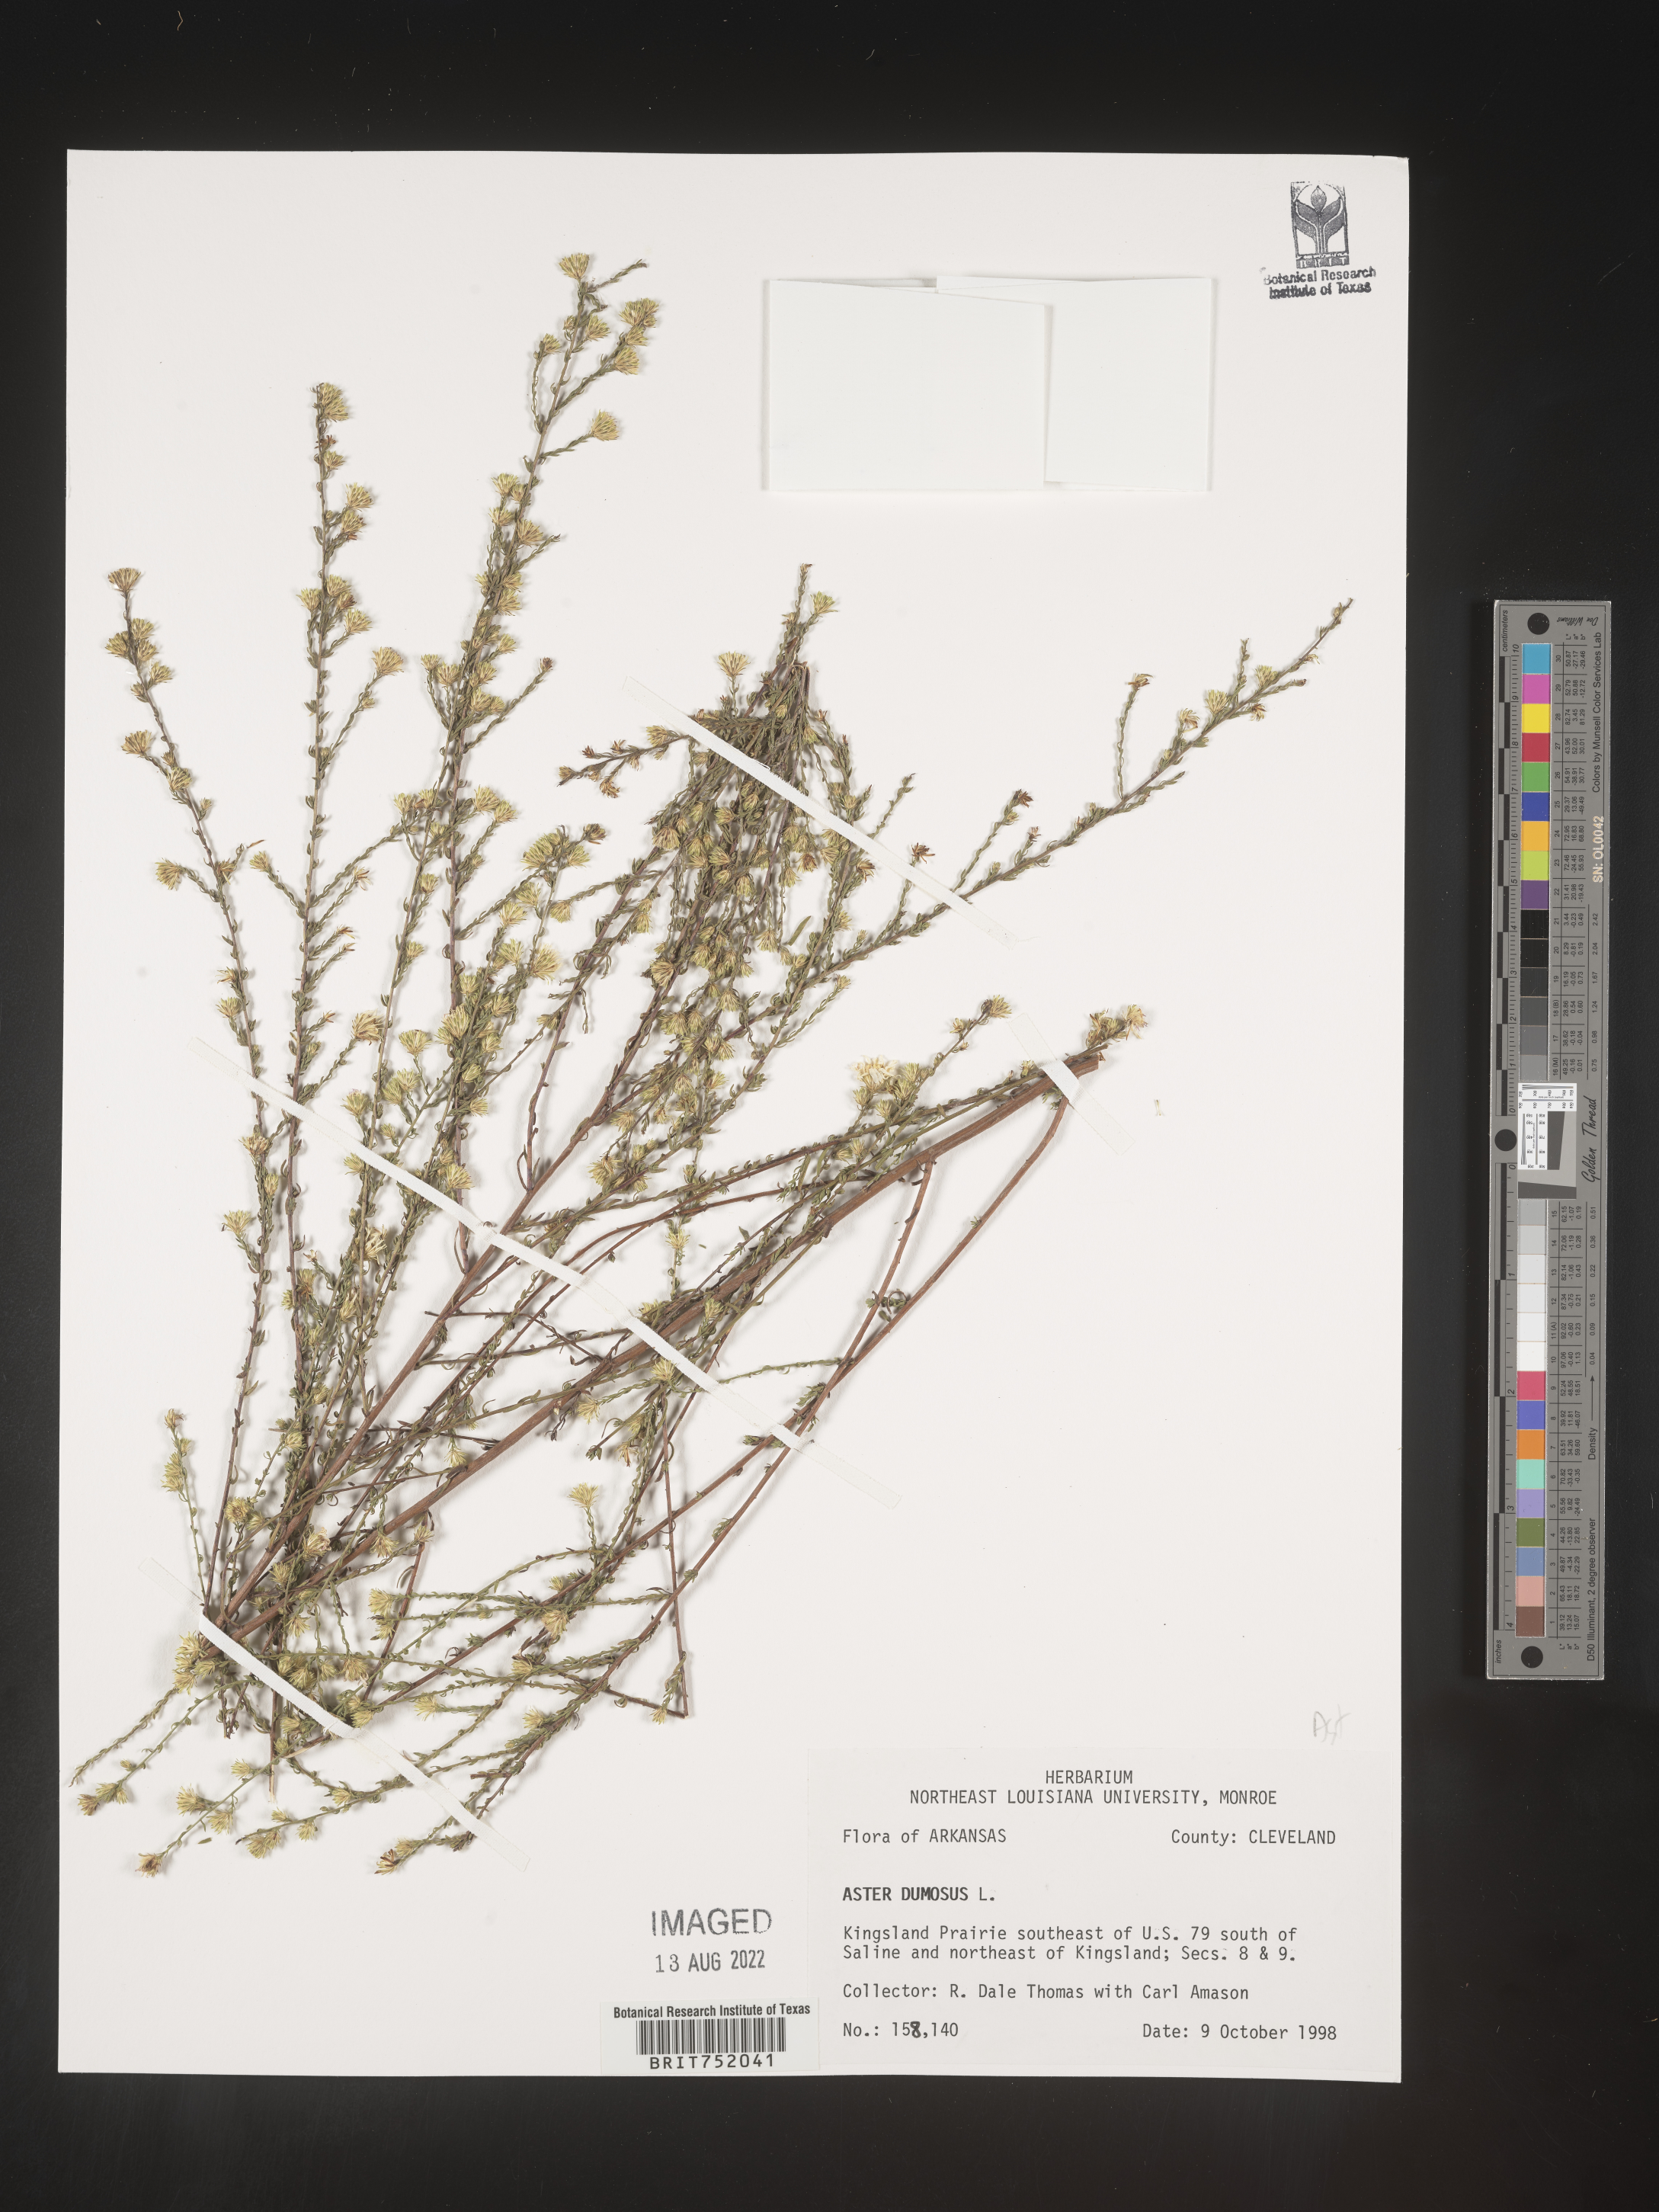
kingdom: Plantae
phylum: Tracheophyta
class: Magnoliopsida
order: Asterales
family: Asteraceae
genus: Symphyotrichum
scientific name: Symphyotrichum dumosum
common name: Bushy aster
